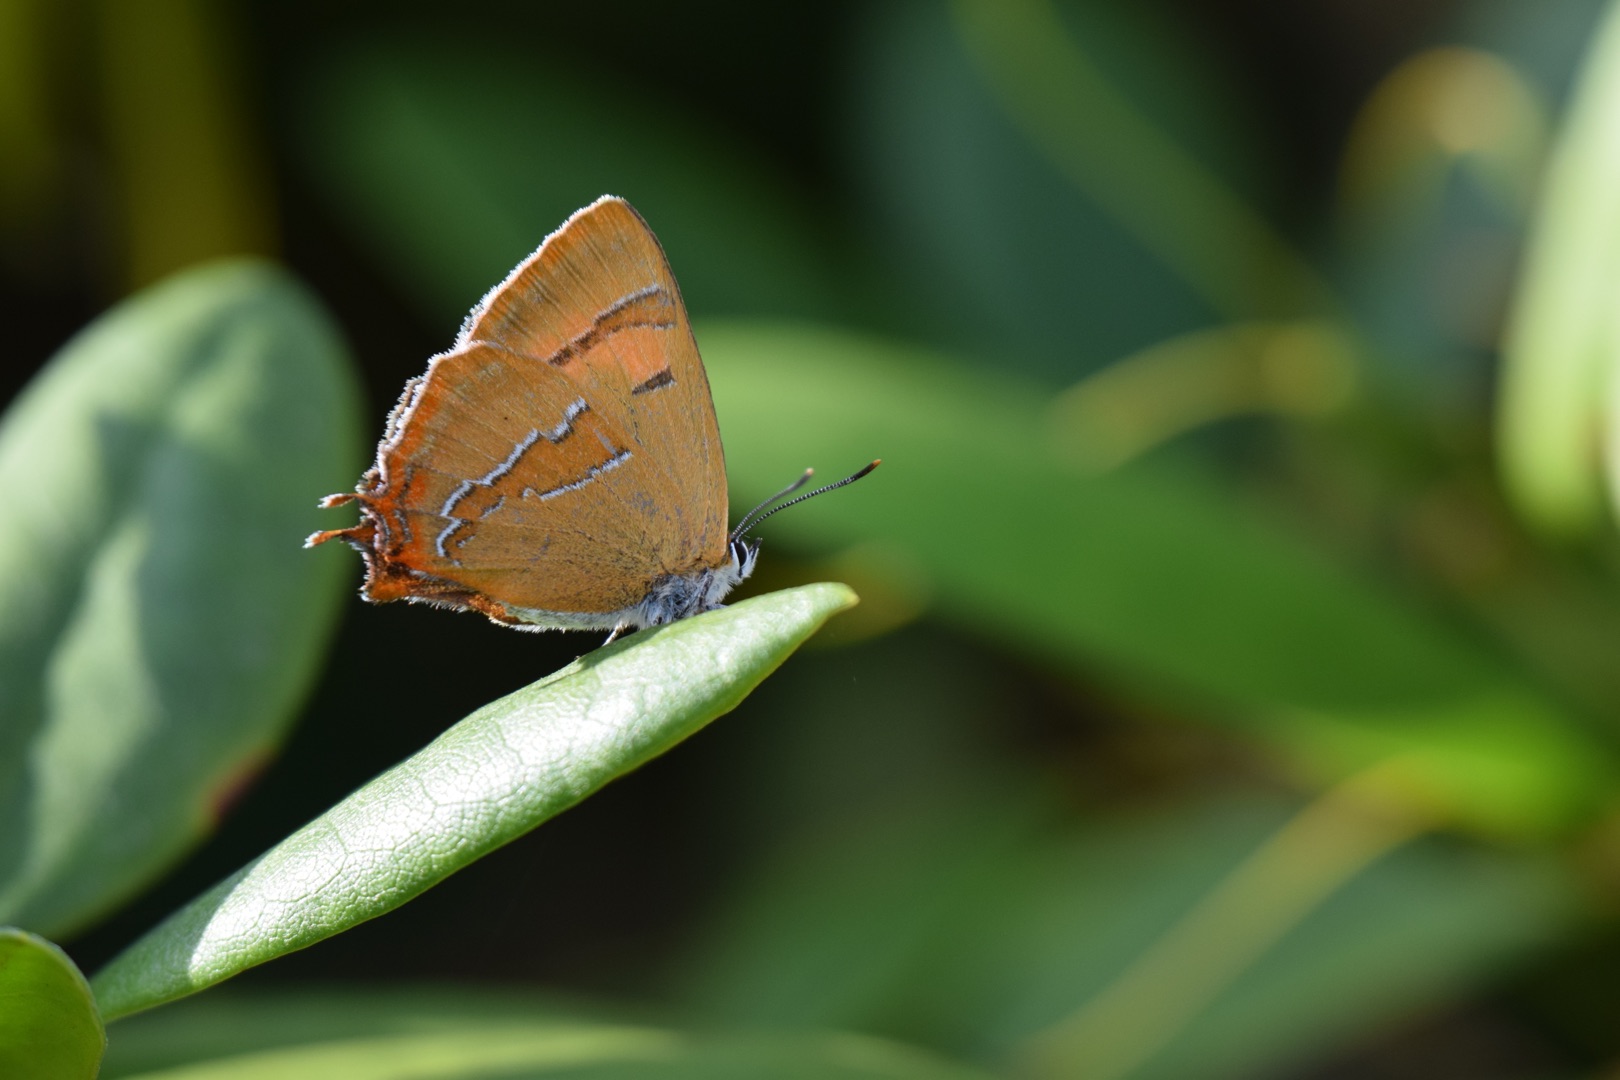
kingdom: Animalia
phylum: Arthropoda
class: Insecta
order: Lepidoptera
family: Lycaenidae
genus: Thecla
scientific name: Thecla betulae
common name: Guldhale
